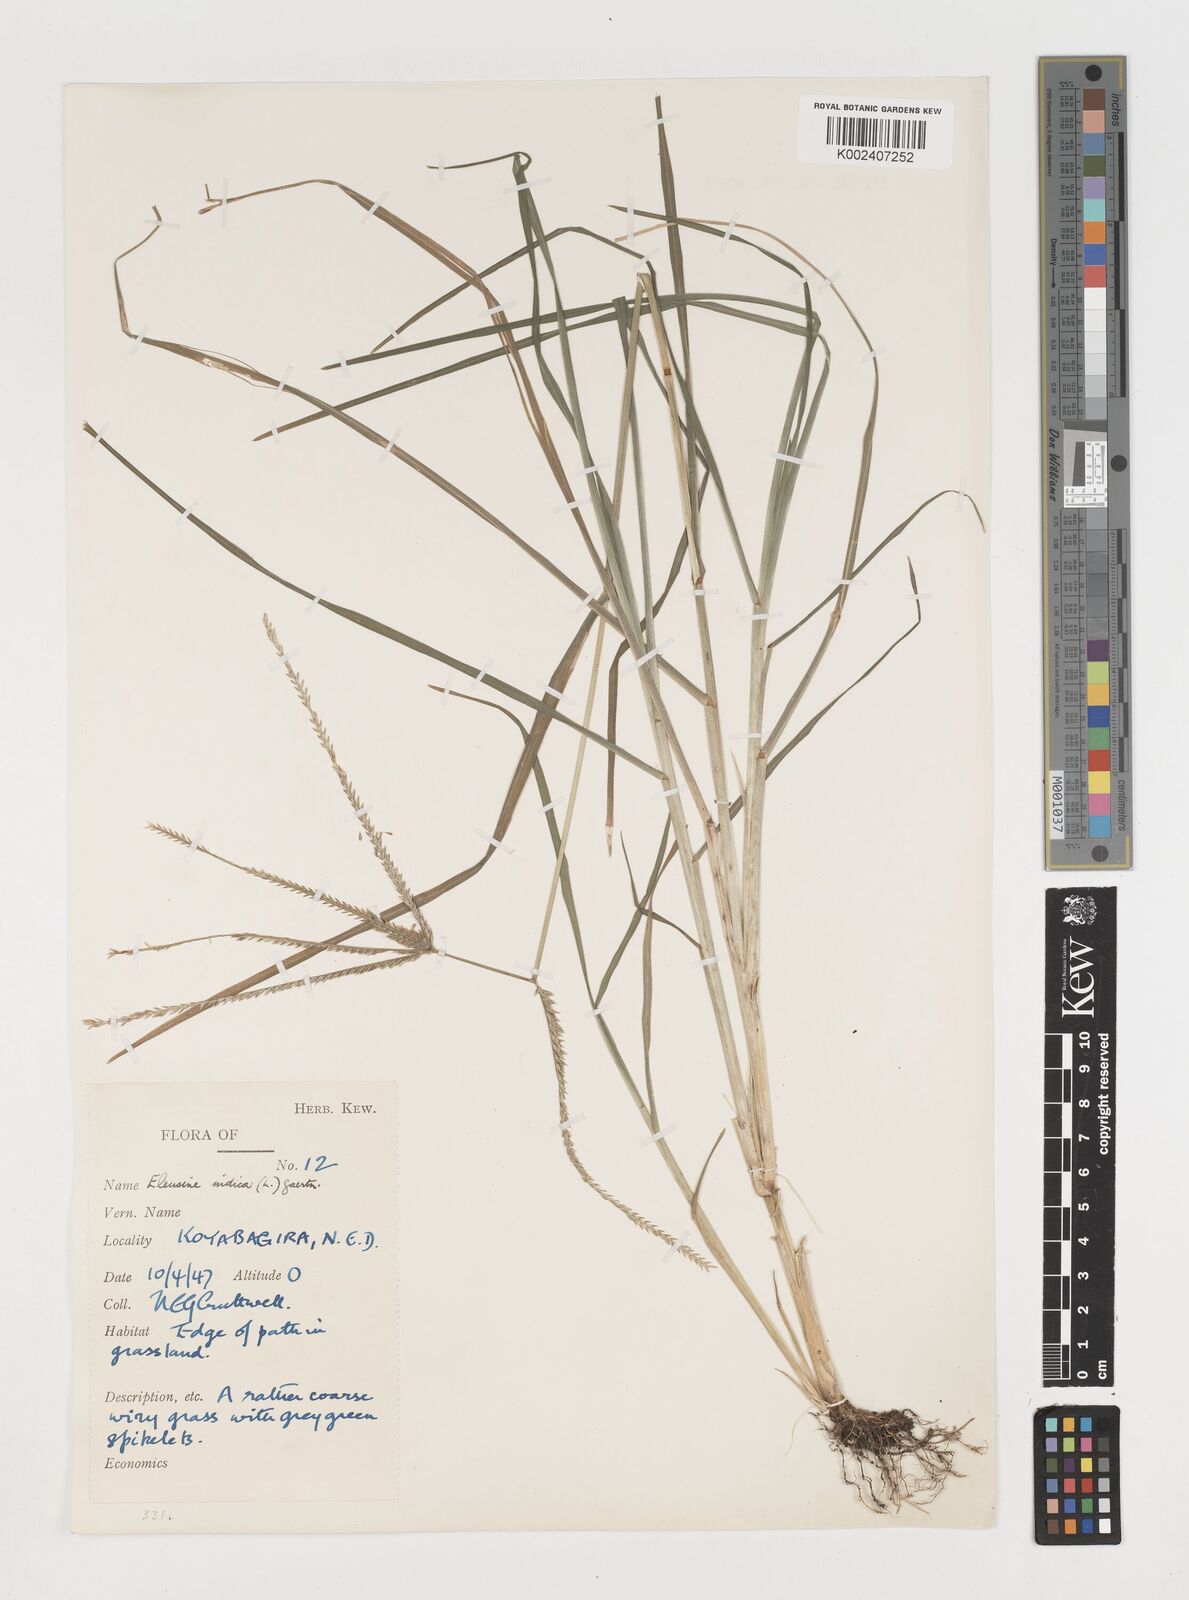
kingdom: Plantae
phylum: Tracheophyta
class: Liliopsida
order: Poales
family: Poaceae
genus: Eleusine
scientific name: Eleusine indica
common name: Yard-grass
